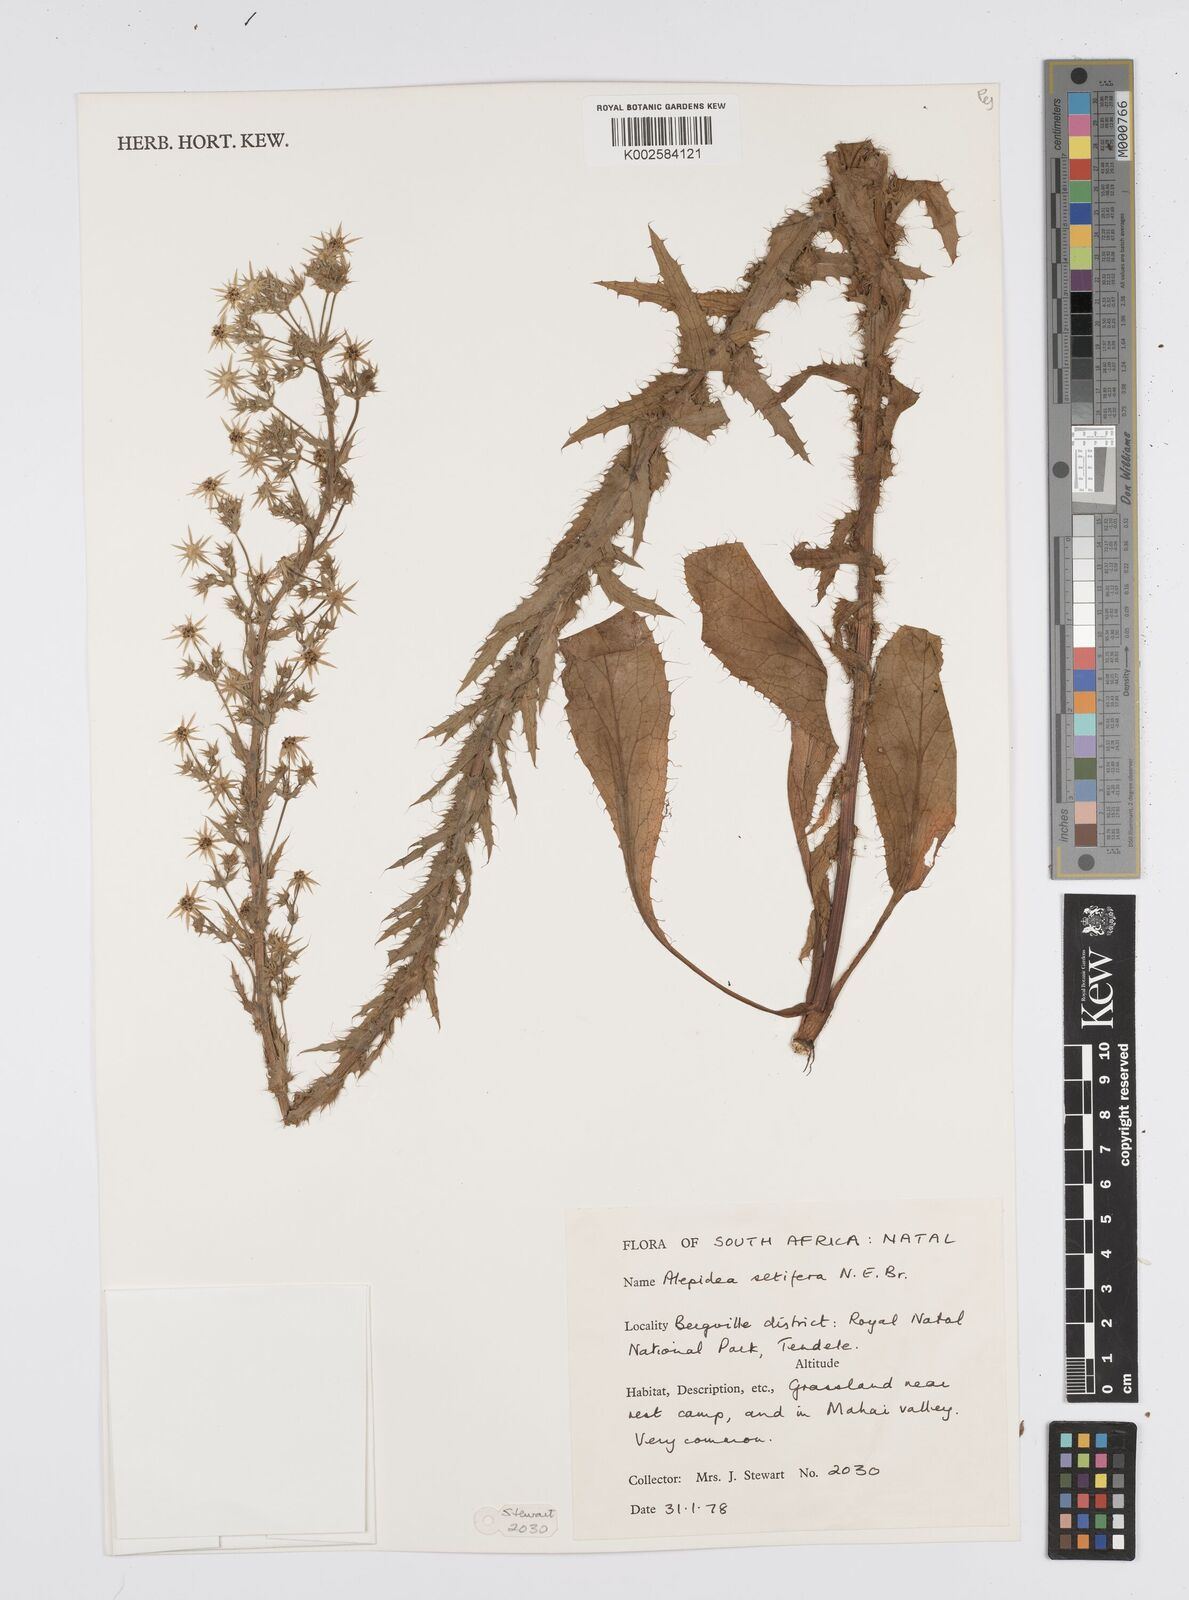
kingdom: Plantae
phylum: Tracheophyta
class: Magnoliopsida
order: Apiales
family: Apiaceae
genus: Alepidea
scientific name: Alepidea setifera
